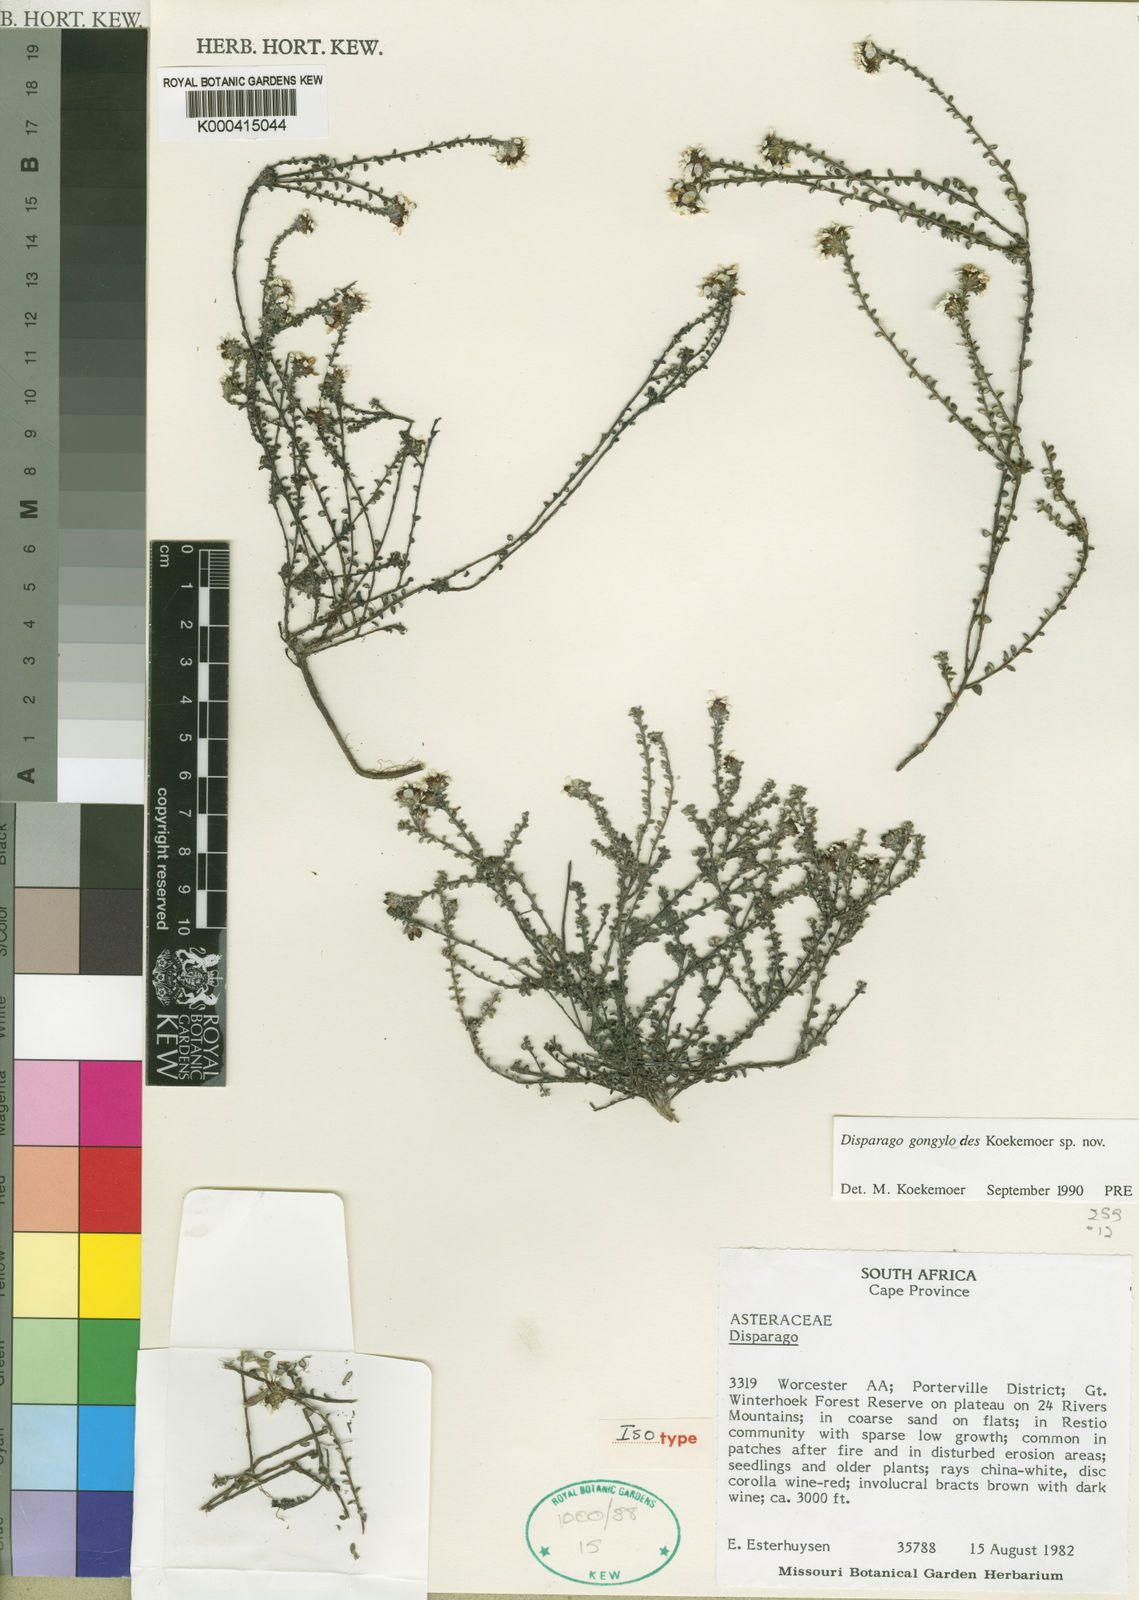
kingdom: Plantae
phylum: Tracheophyta
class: Magnoliopsida
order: Asterales
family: Asteraceae
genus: Disparago
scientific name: Disparago gongylodes
